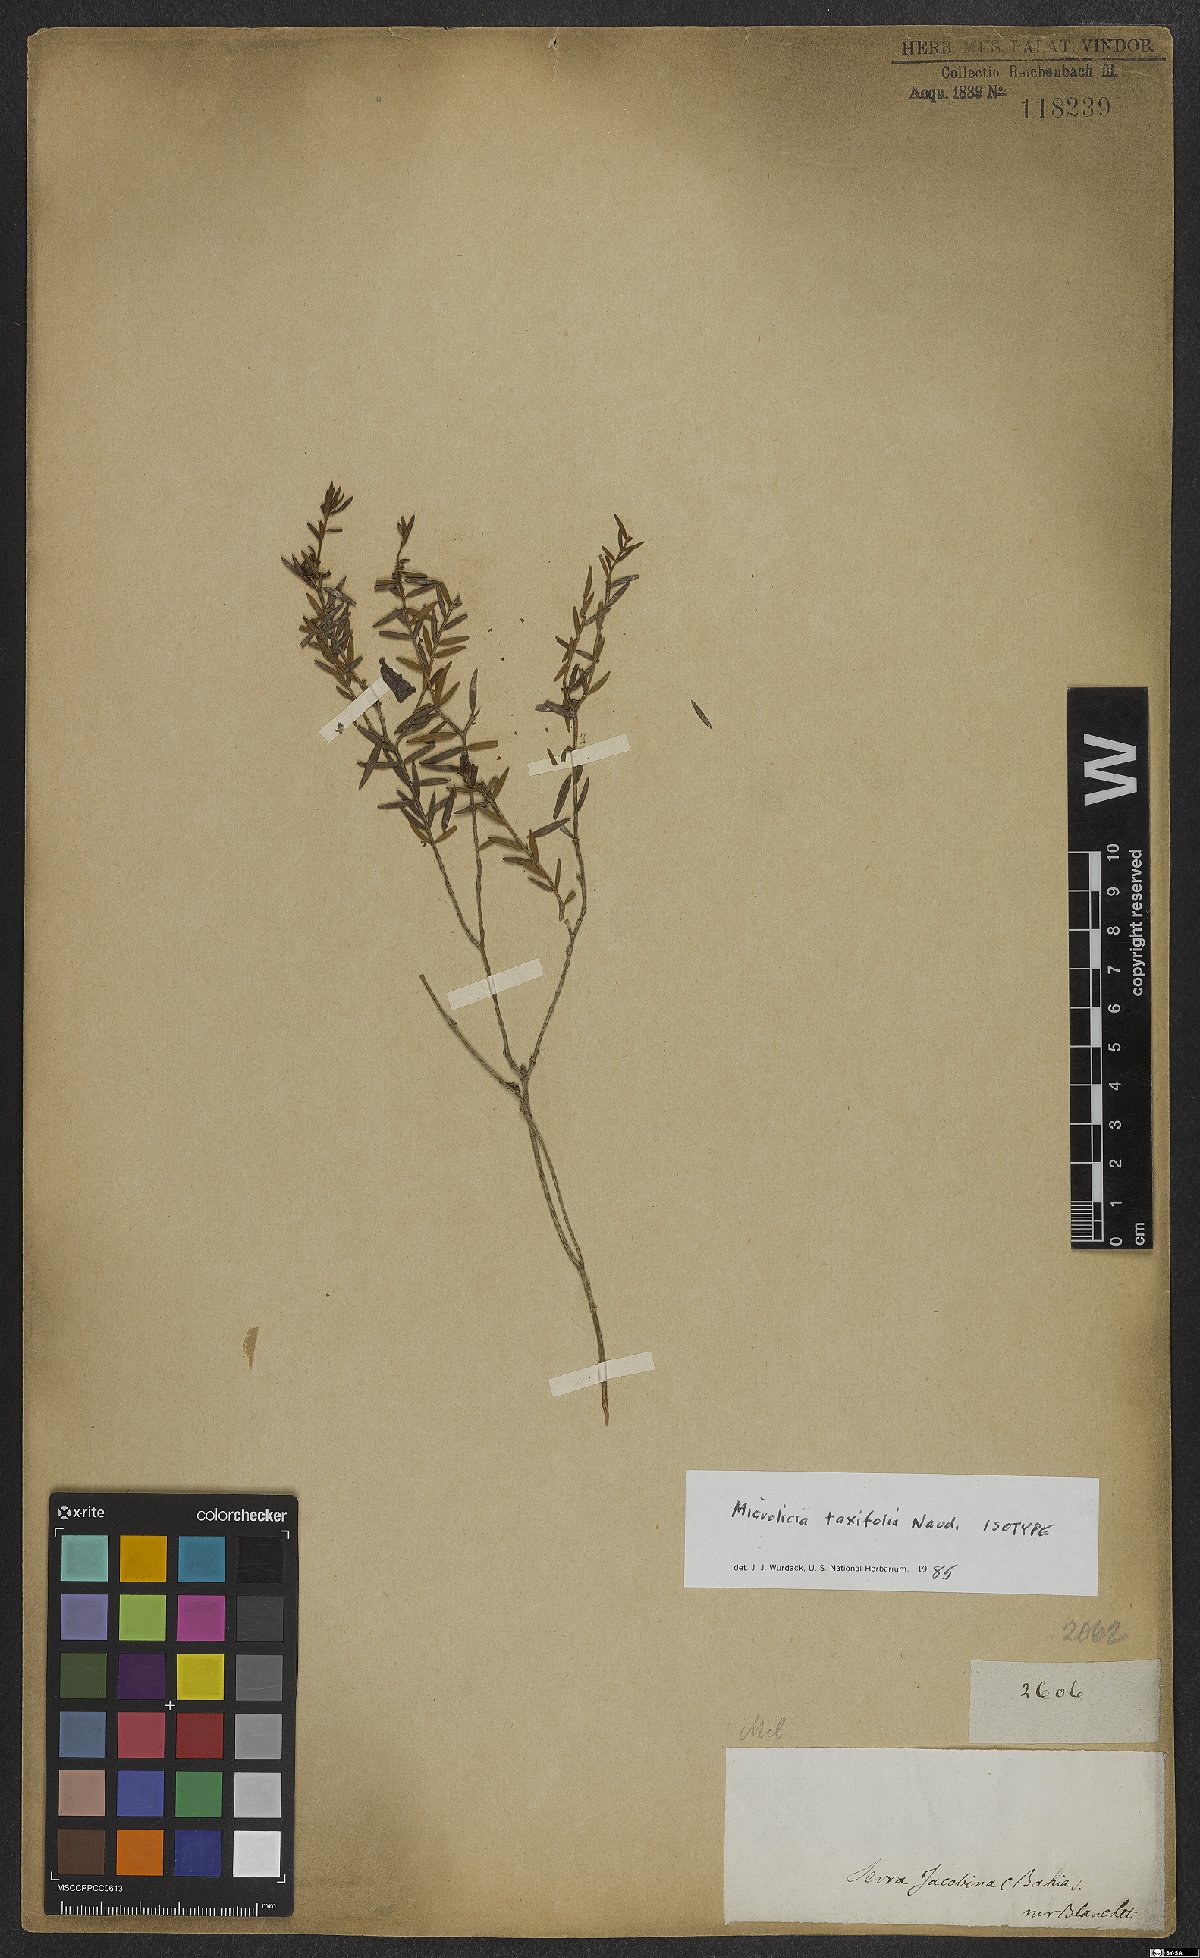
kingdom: Plantae
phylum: Tracheophyta
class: Magnoliopsida
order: Myrtales
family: Melastomataceae
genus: Microlicia
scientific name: Microlicia taxifolia
